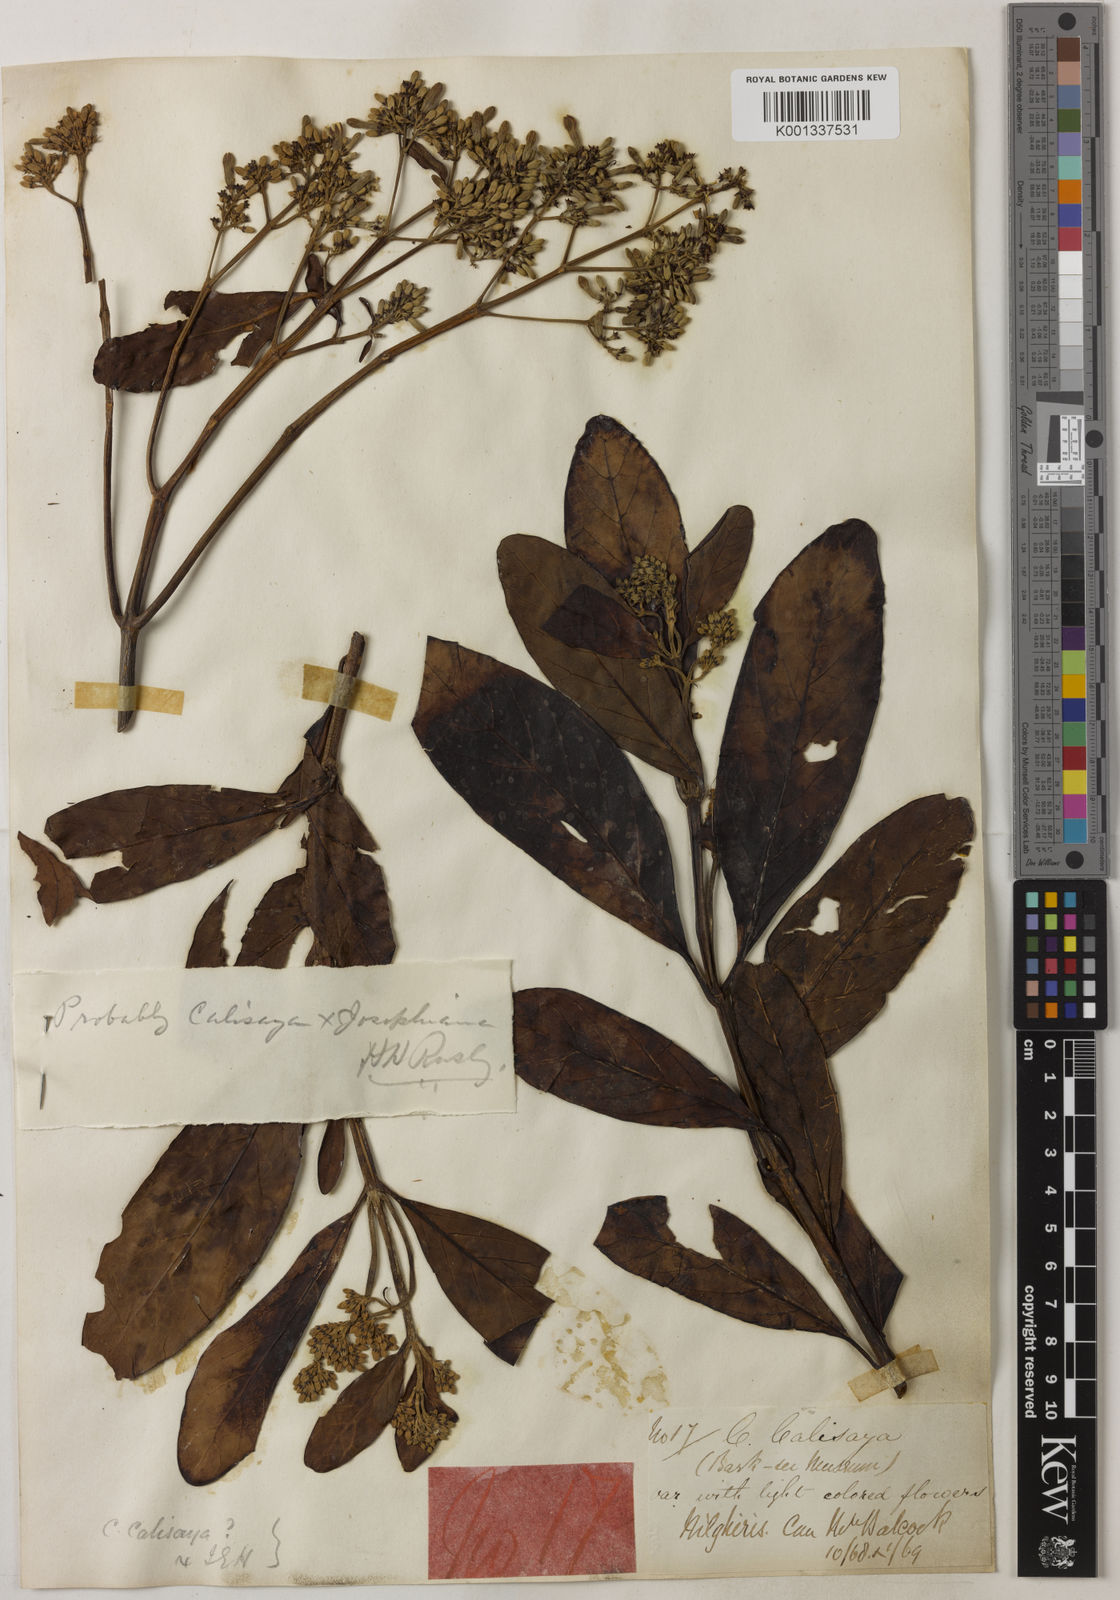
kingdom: Plantae
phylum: Tracheophyta
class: Magnoliopsida
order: Gentianales
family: Rubiaceae
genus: Cinchona
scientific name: Cinchona calisaya
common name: Ledgerbark
